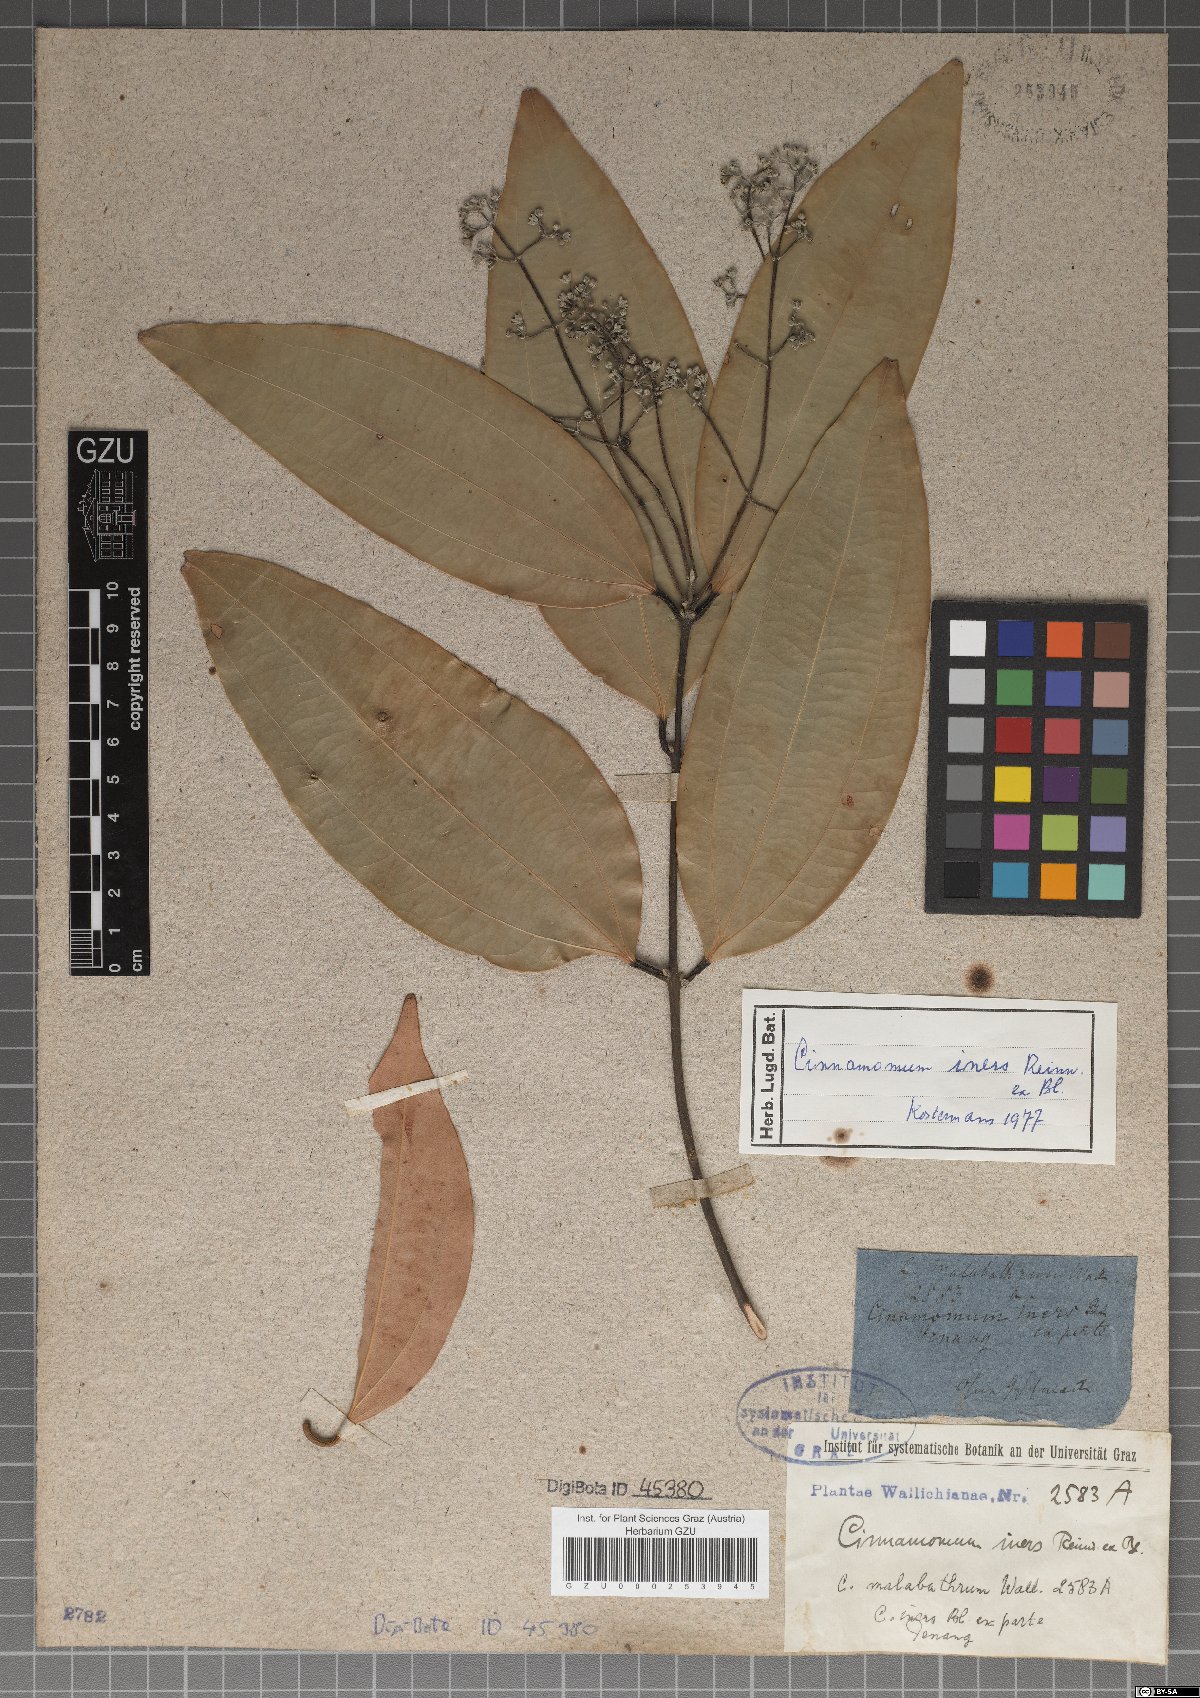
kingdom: Plantae
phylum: Tracheophyta
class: Magnoliopsida
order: Laurales
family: Lauraceae
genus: Cinnamomum
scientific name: Cinnamomum verum
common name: Cinnamon
